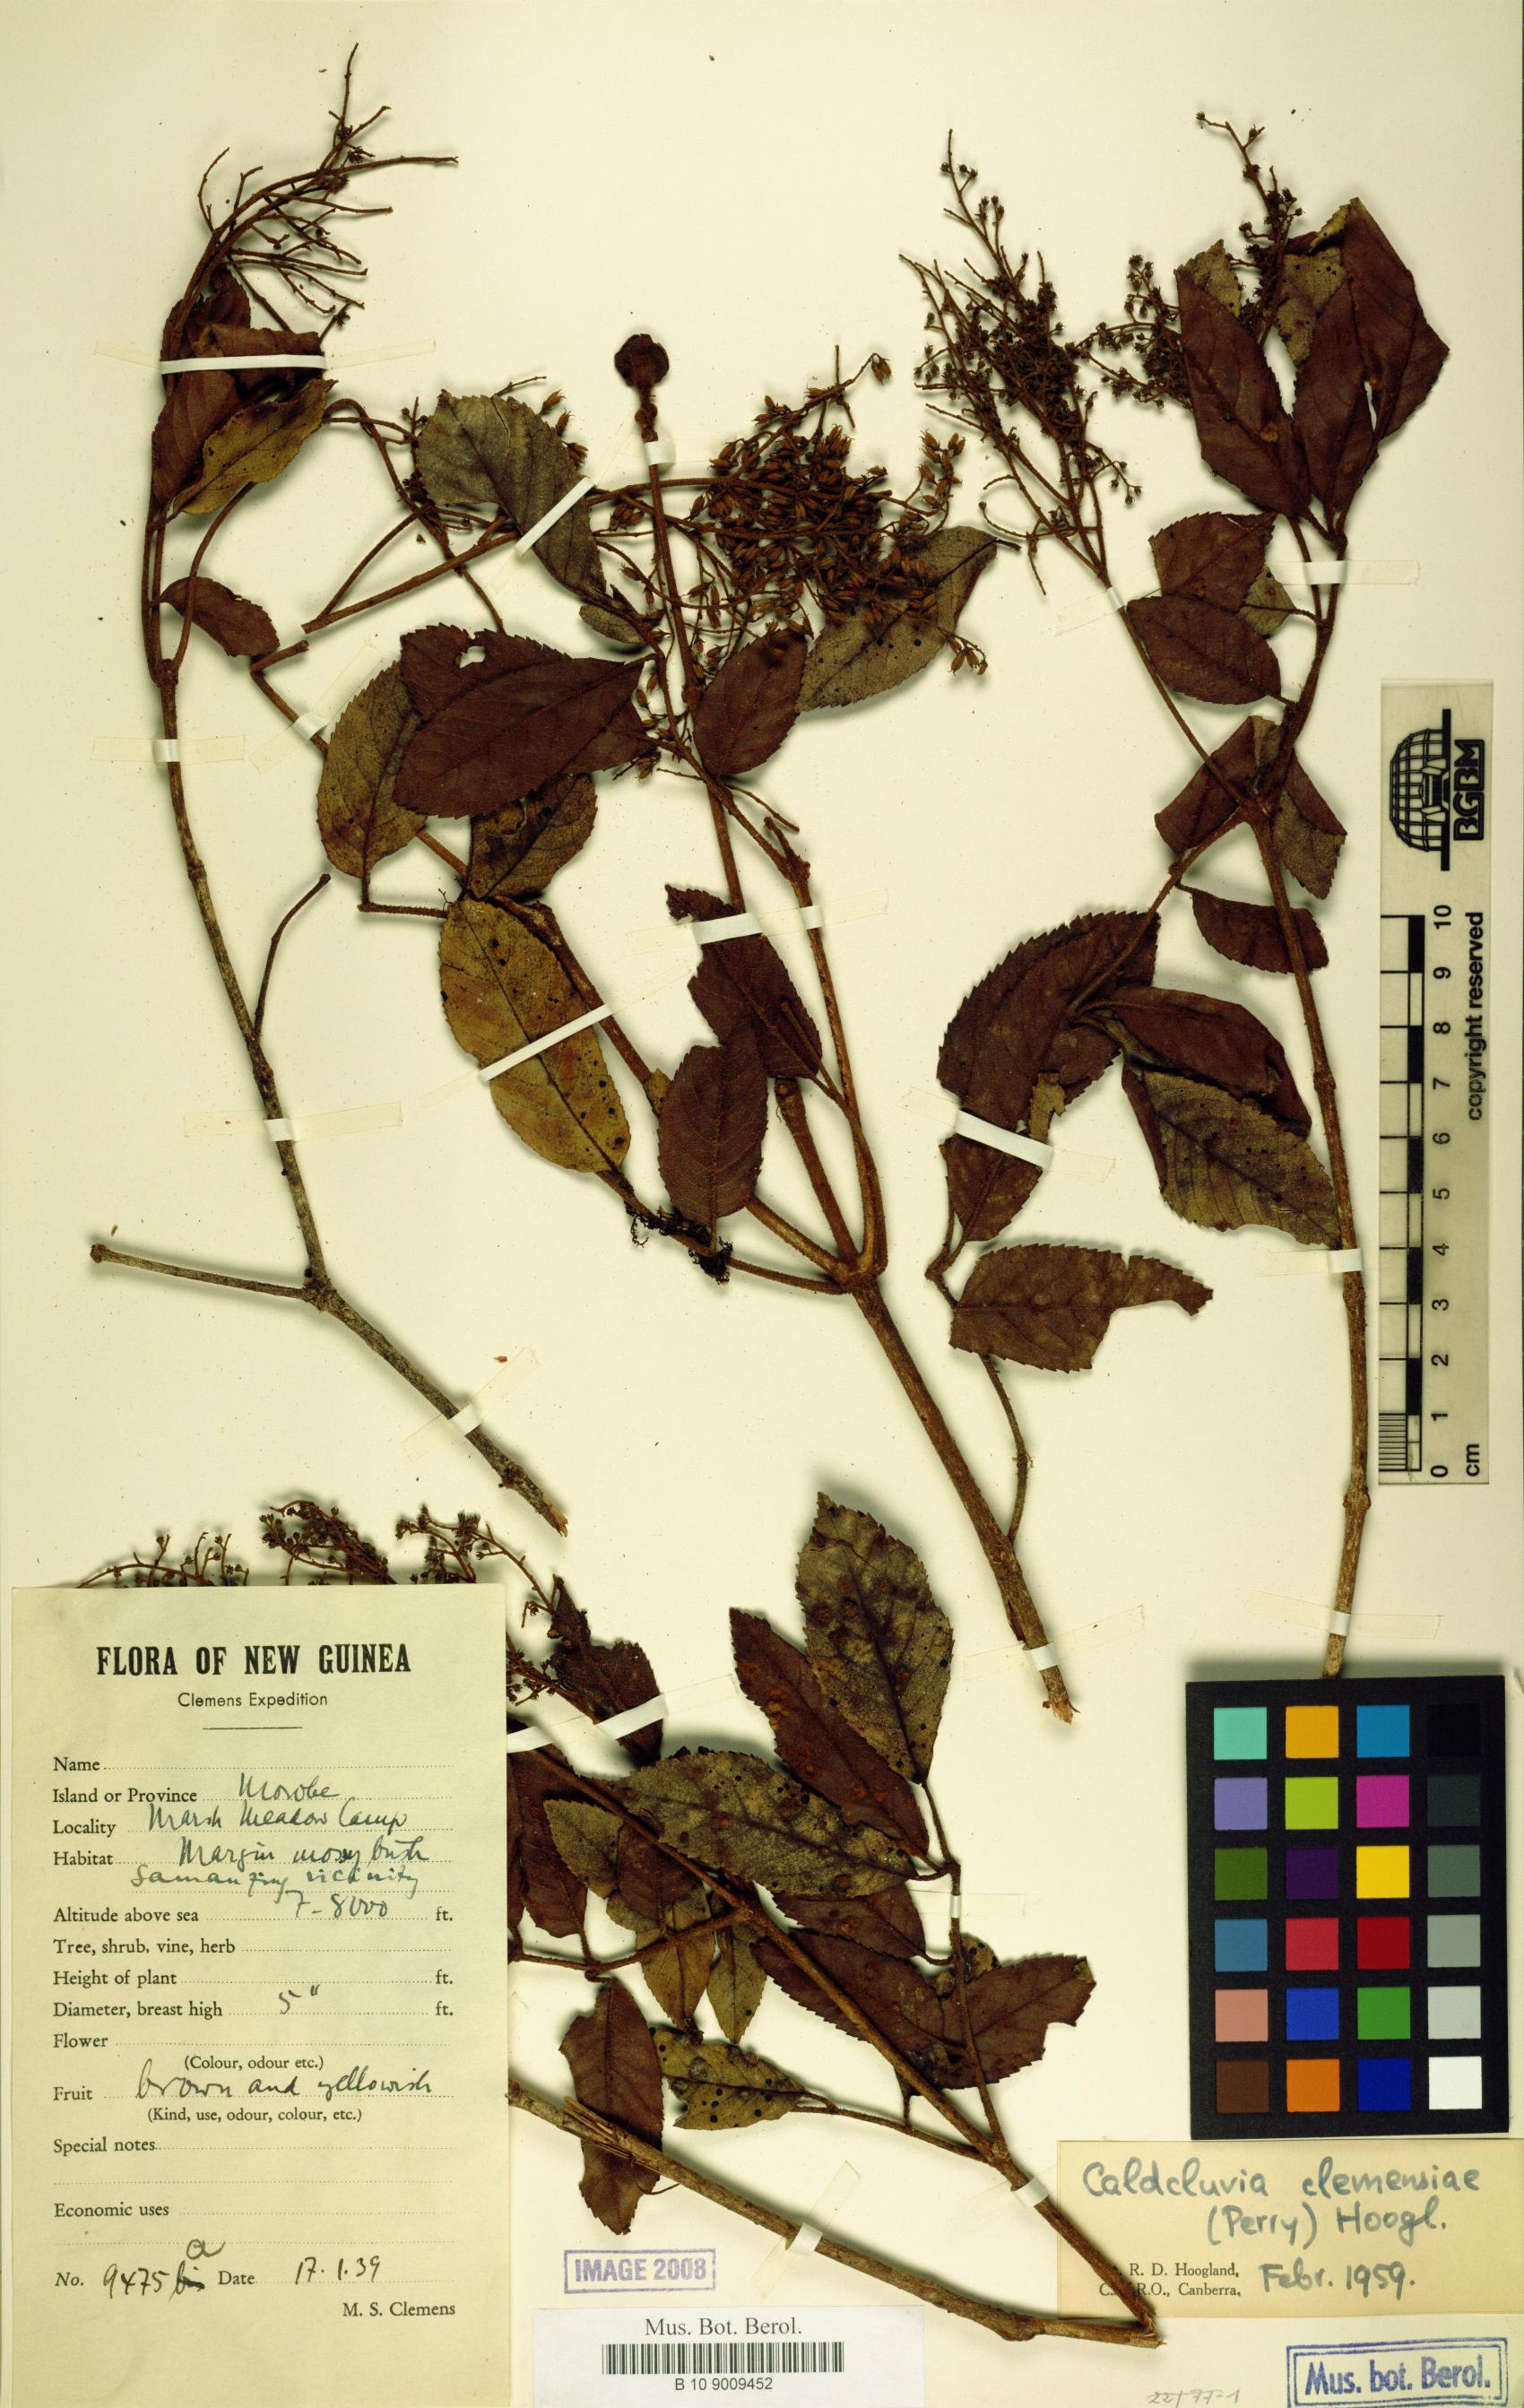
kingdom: Plantae
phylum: Tracheophyta
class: Magnoliopsida
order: Oxalidales
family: Cunoniaceae
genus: Ackama
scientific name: Ackama clemensiae
